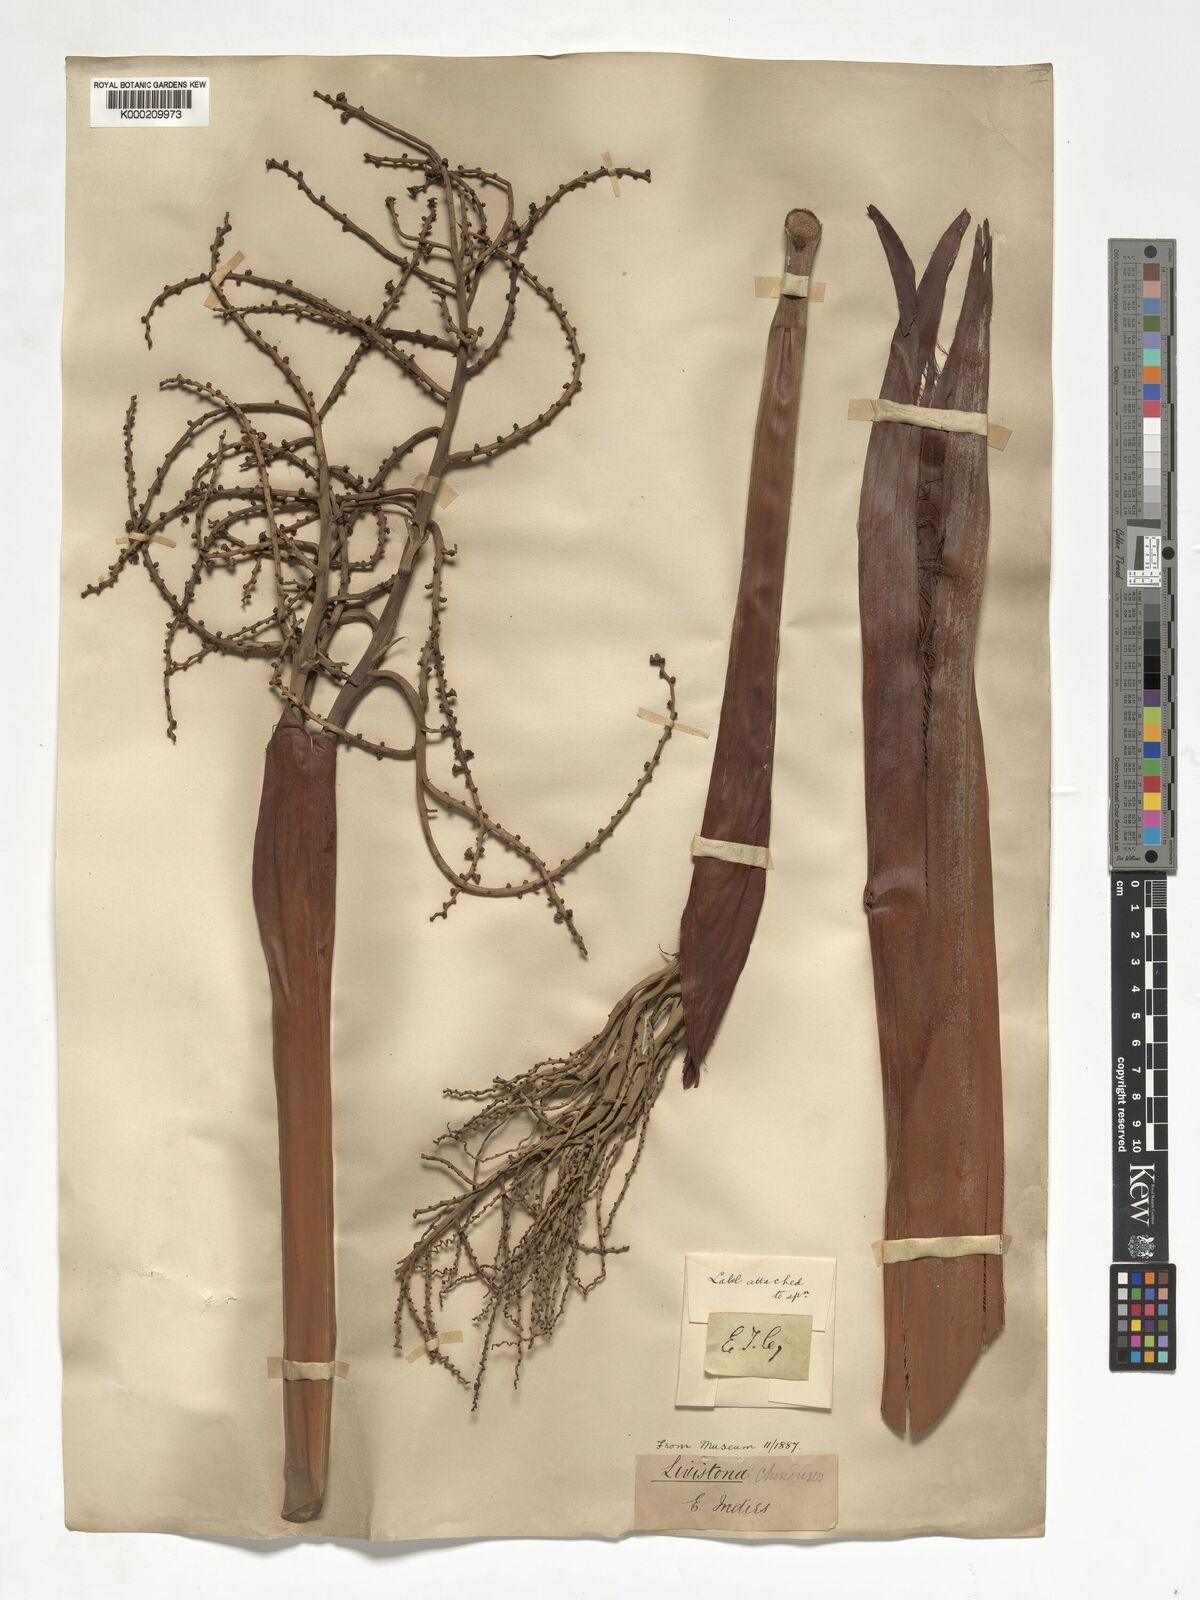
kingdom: Plantae
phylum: Tracheophyta
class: Liliopsida
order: Arecales
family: Arecaceae
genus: Livistona
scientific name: Livistona chinensis
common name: Fountain palm
